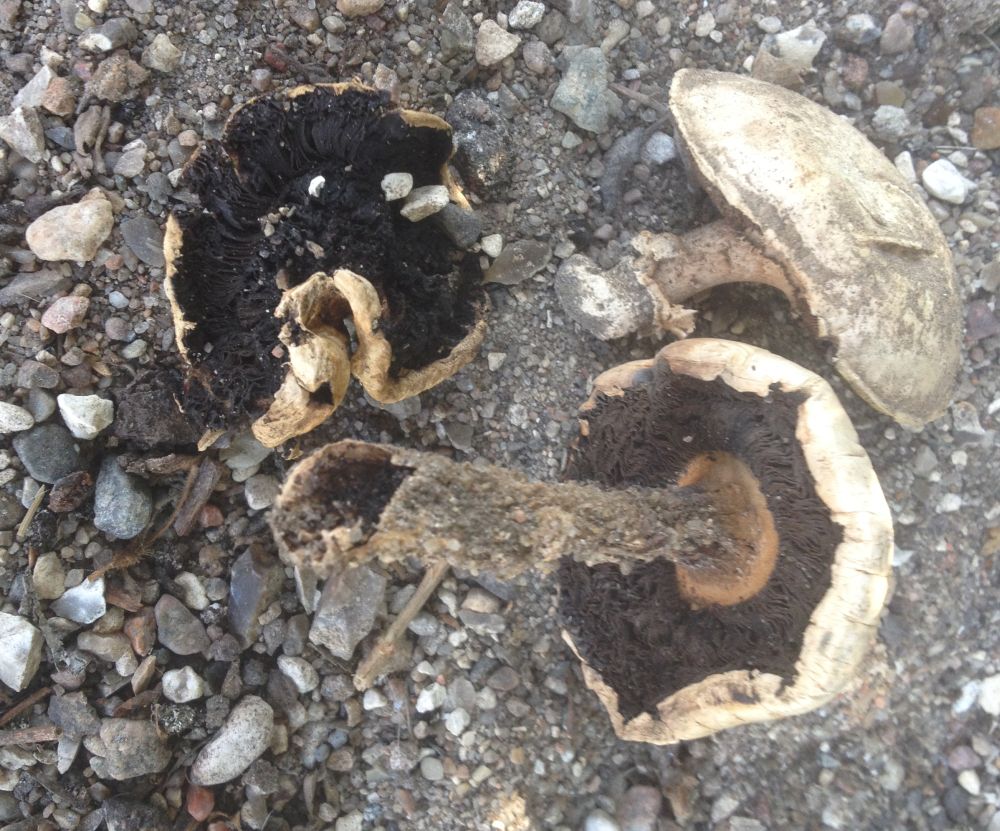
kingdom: Fungi
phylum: Basidiomycota
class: Agaricomycetes
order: Agaricales
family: Agaricaceae
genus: Agaricus
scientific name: Agaricus
